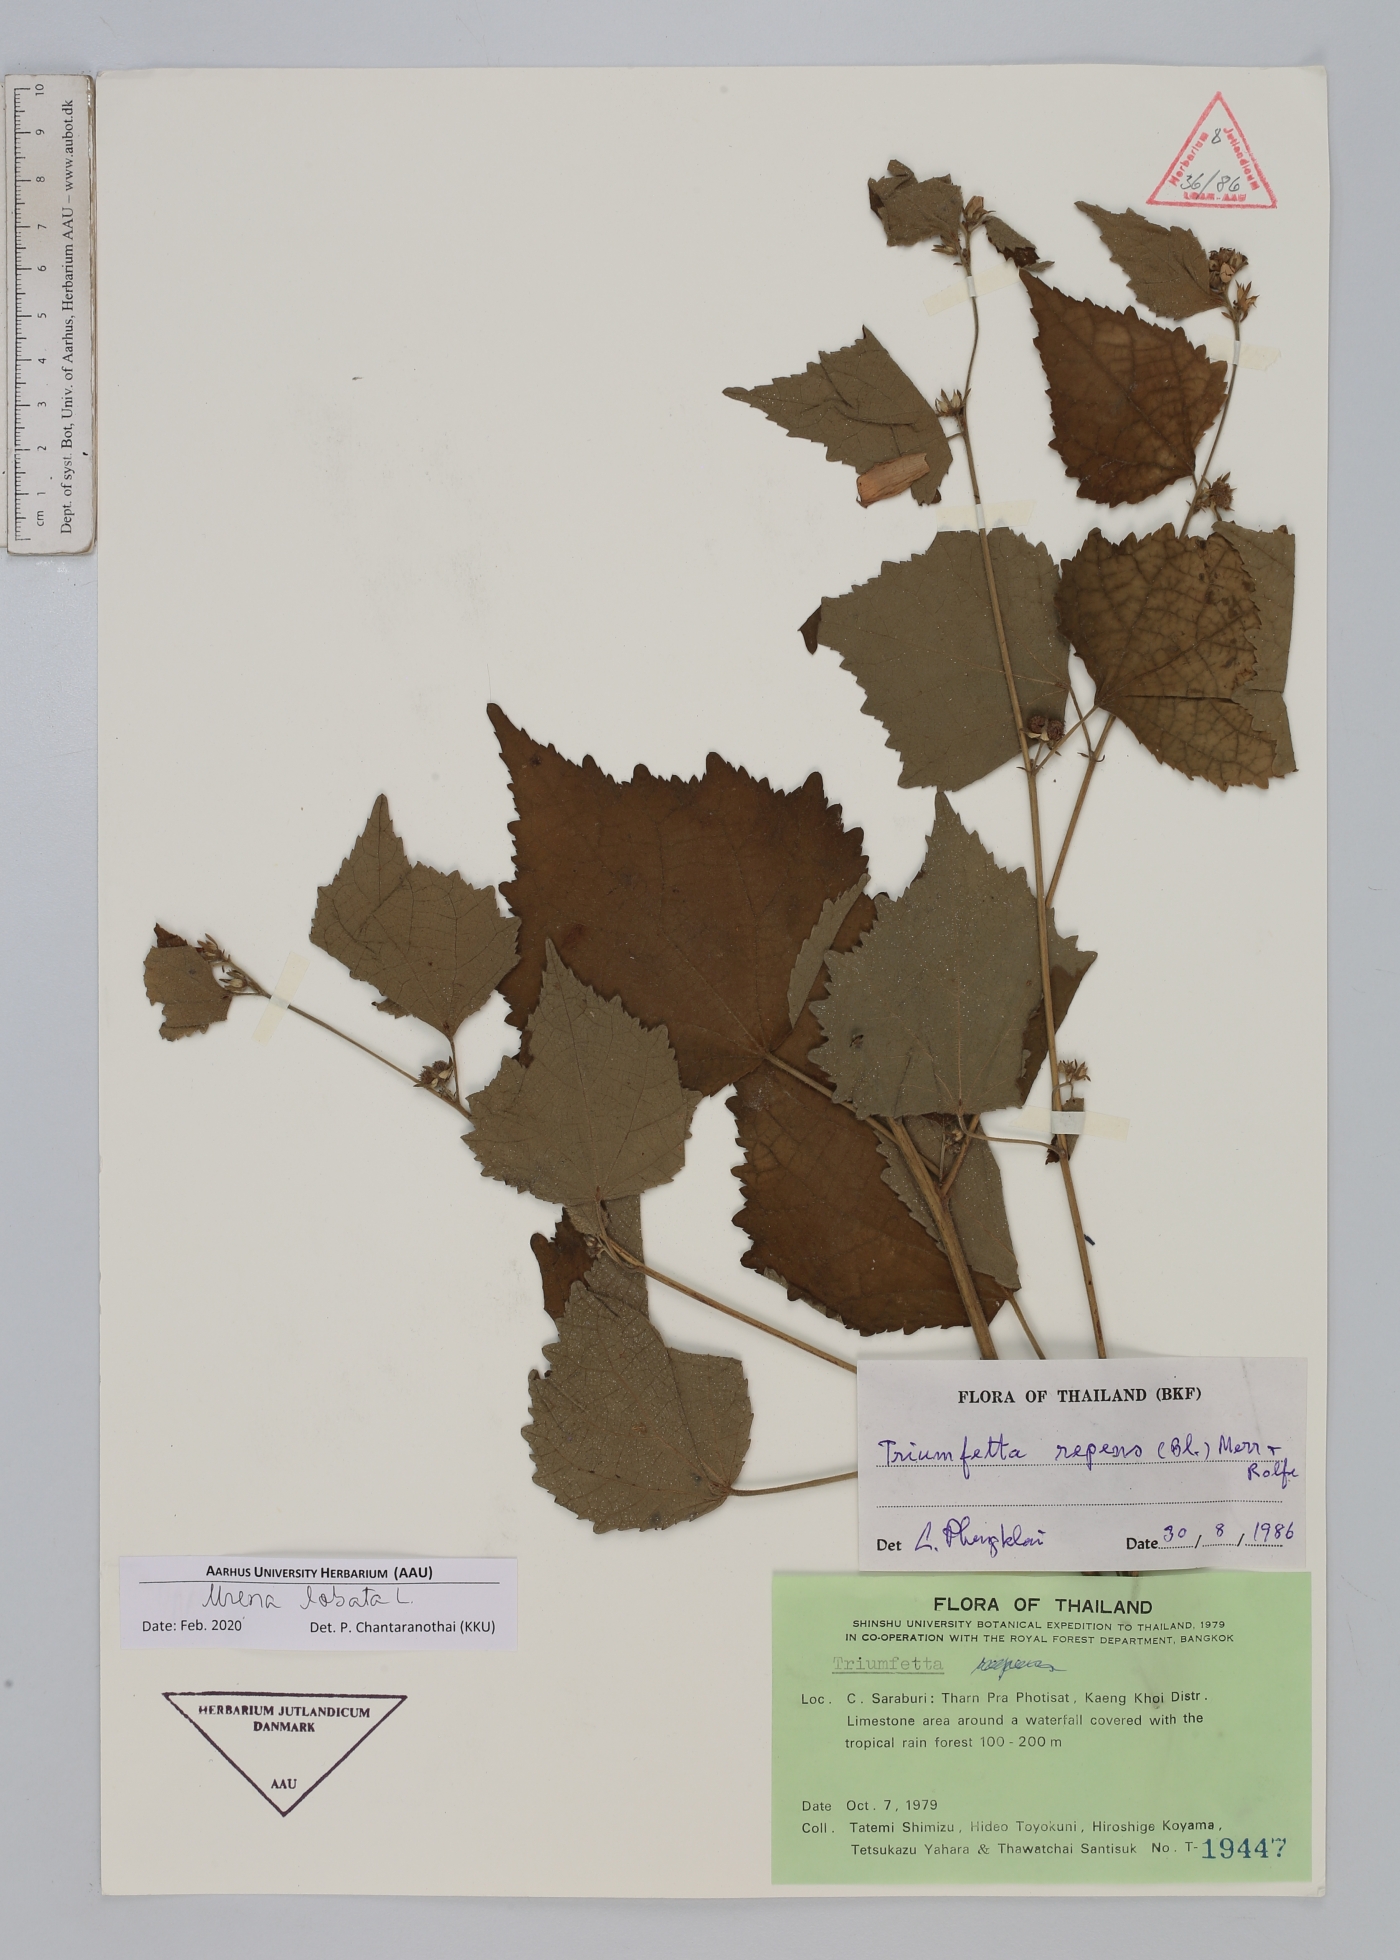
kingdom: Plantae
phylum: Tracheophyta
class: Magnoliopsida
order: Malvales
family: Malvaceae
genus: Urena
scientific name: Urena lobata
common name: Caesarweed
